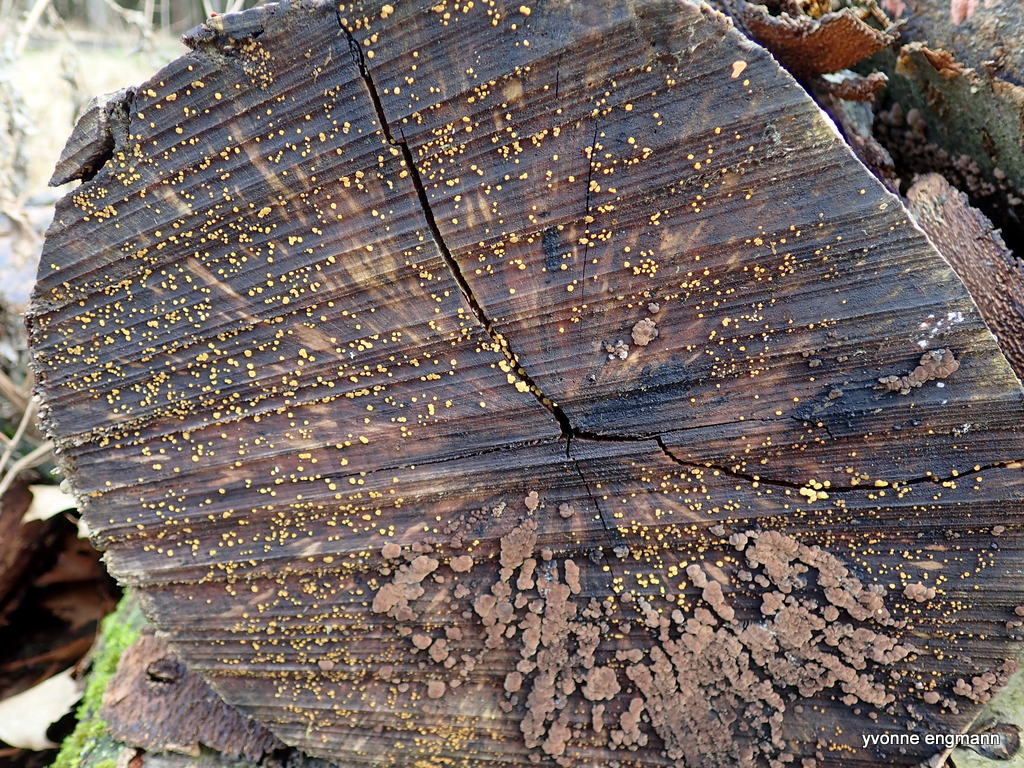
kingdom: Fungi
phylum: Ascomycota
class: Leotiomycetes
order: Helotiales
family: Pezizellaceae
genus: Calycina
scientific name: Calycina
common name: gulskive
